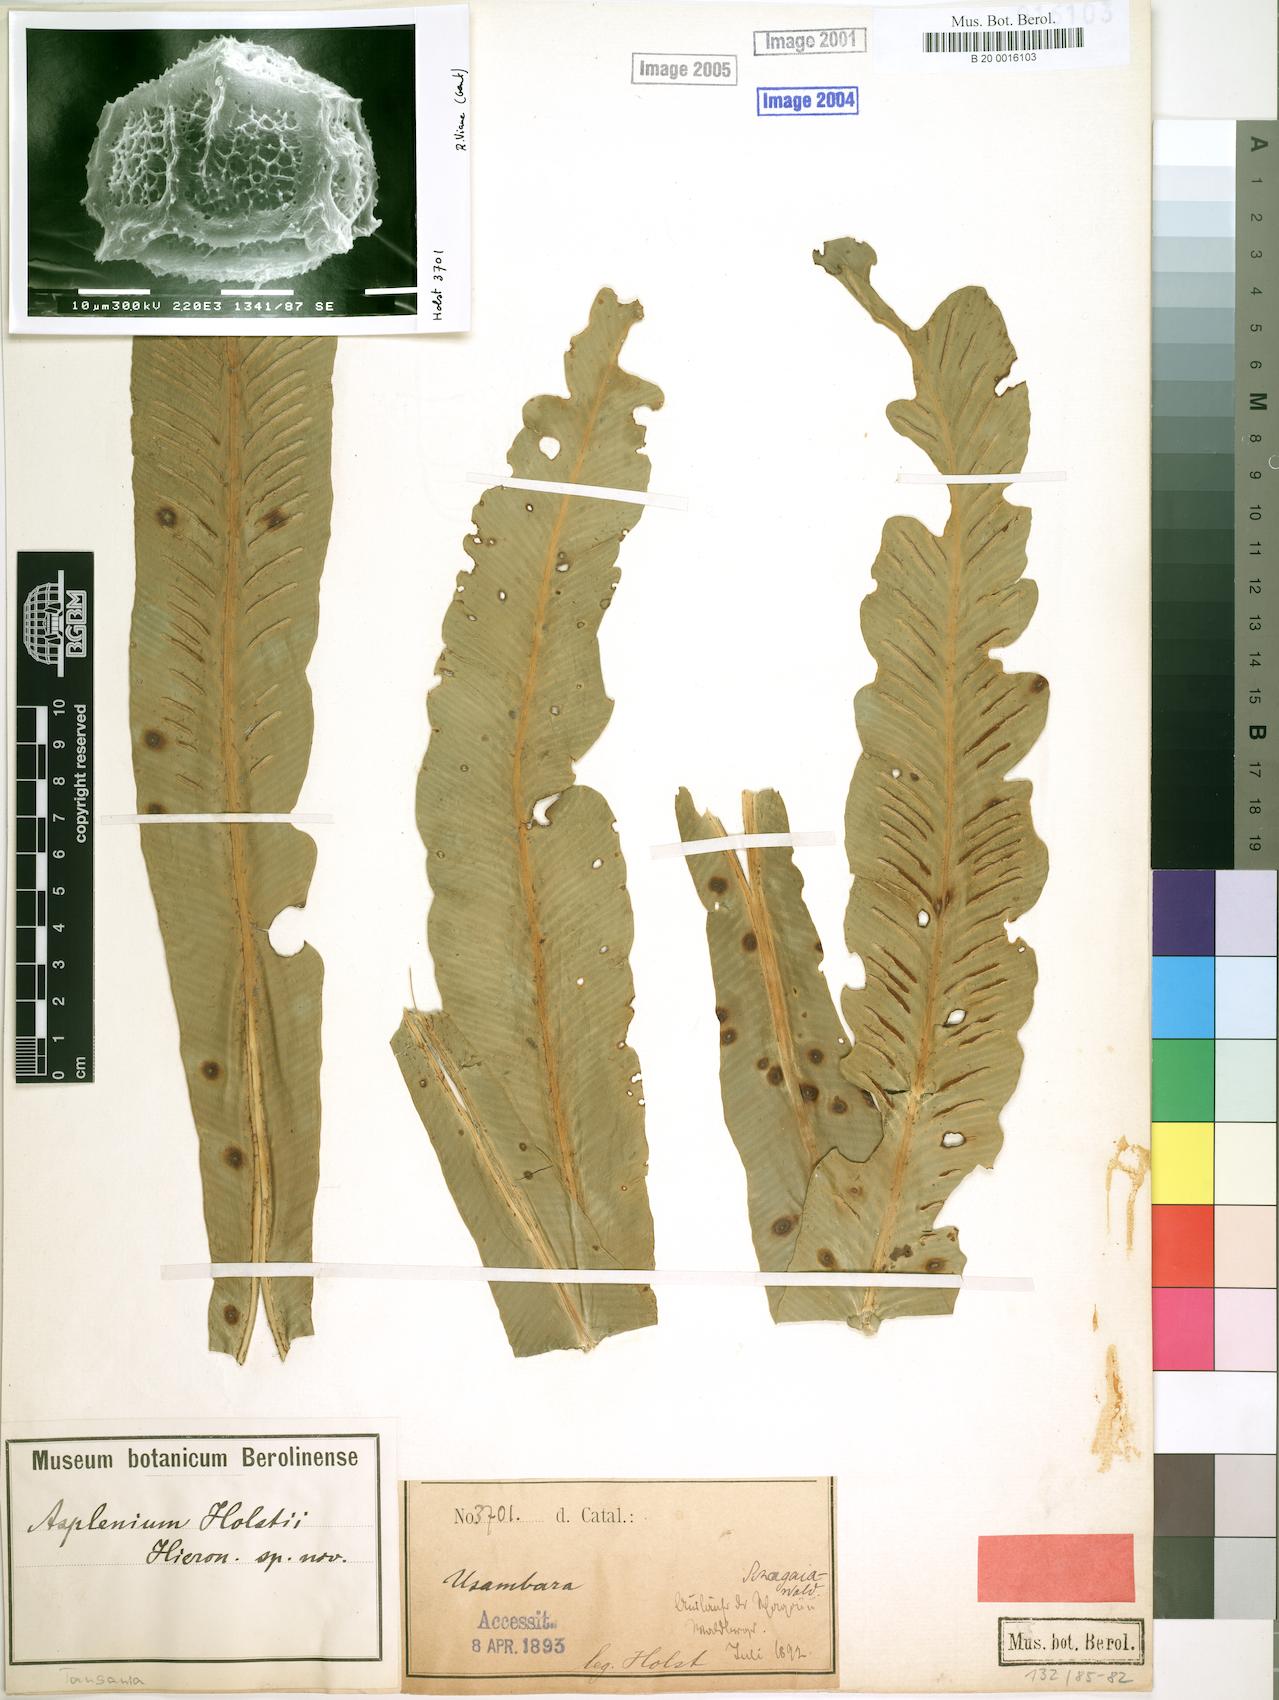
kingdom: Plantae
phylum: Tracheophyta
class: Polypodiopsida
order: Polypodiales
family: Aspleniaceae
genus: Asplenium
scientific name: Asplenium holstii
